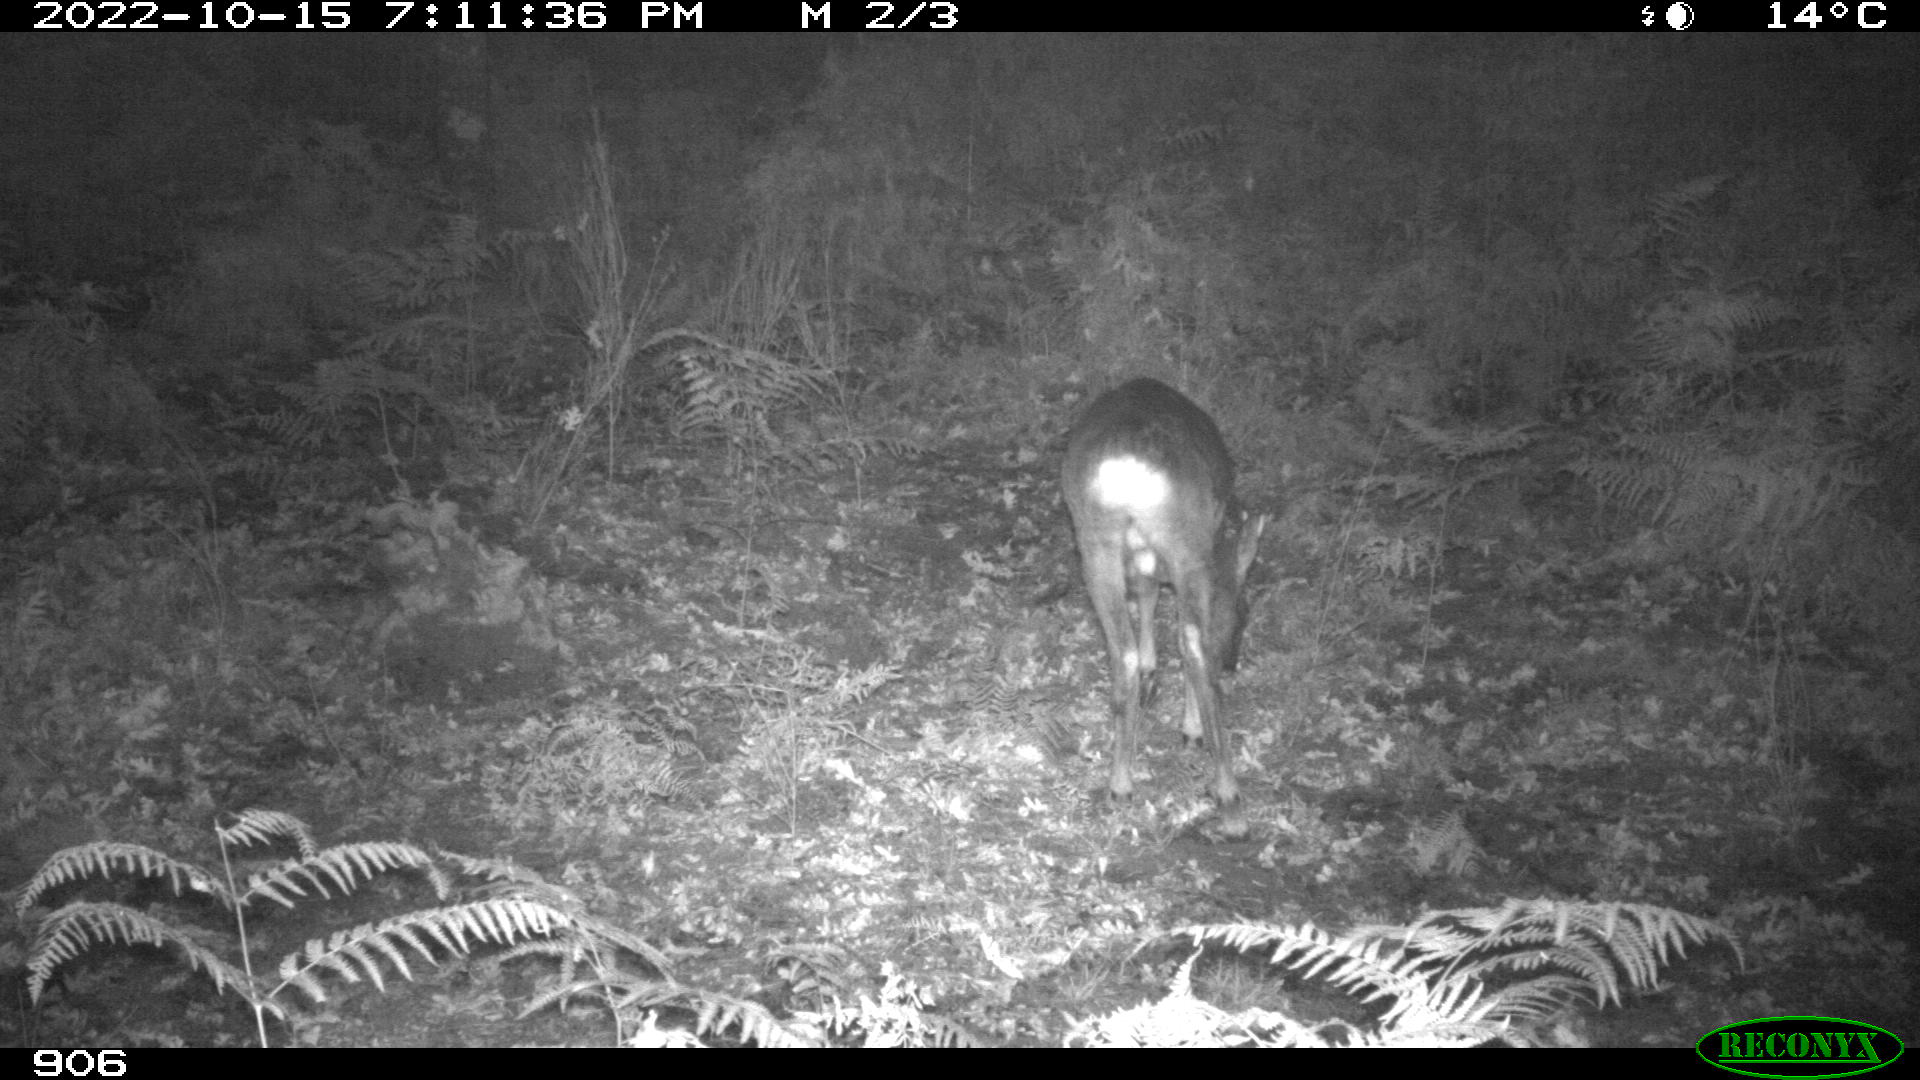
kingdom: Animalia
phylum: Chordata
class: Mammalia
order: Artiodactyla
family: Cervidae
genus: Capreolus
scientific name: Capreolus capreolus
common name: Western roe deer
